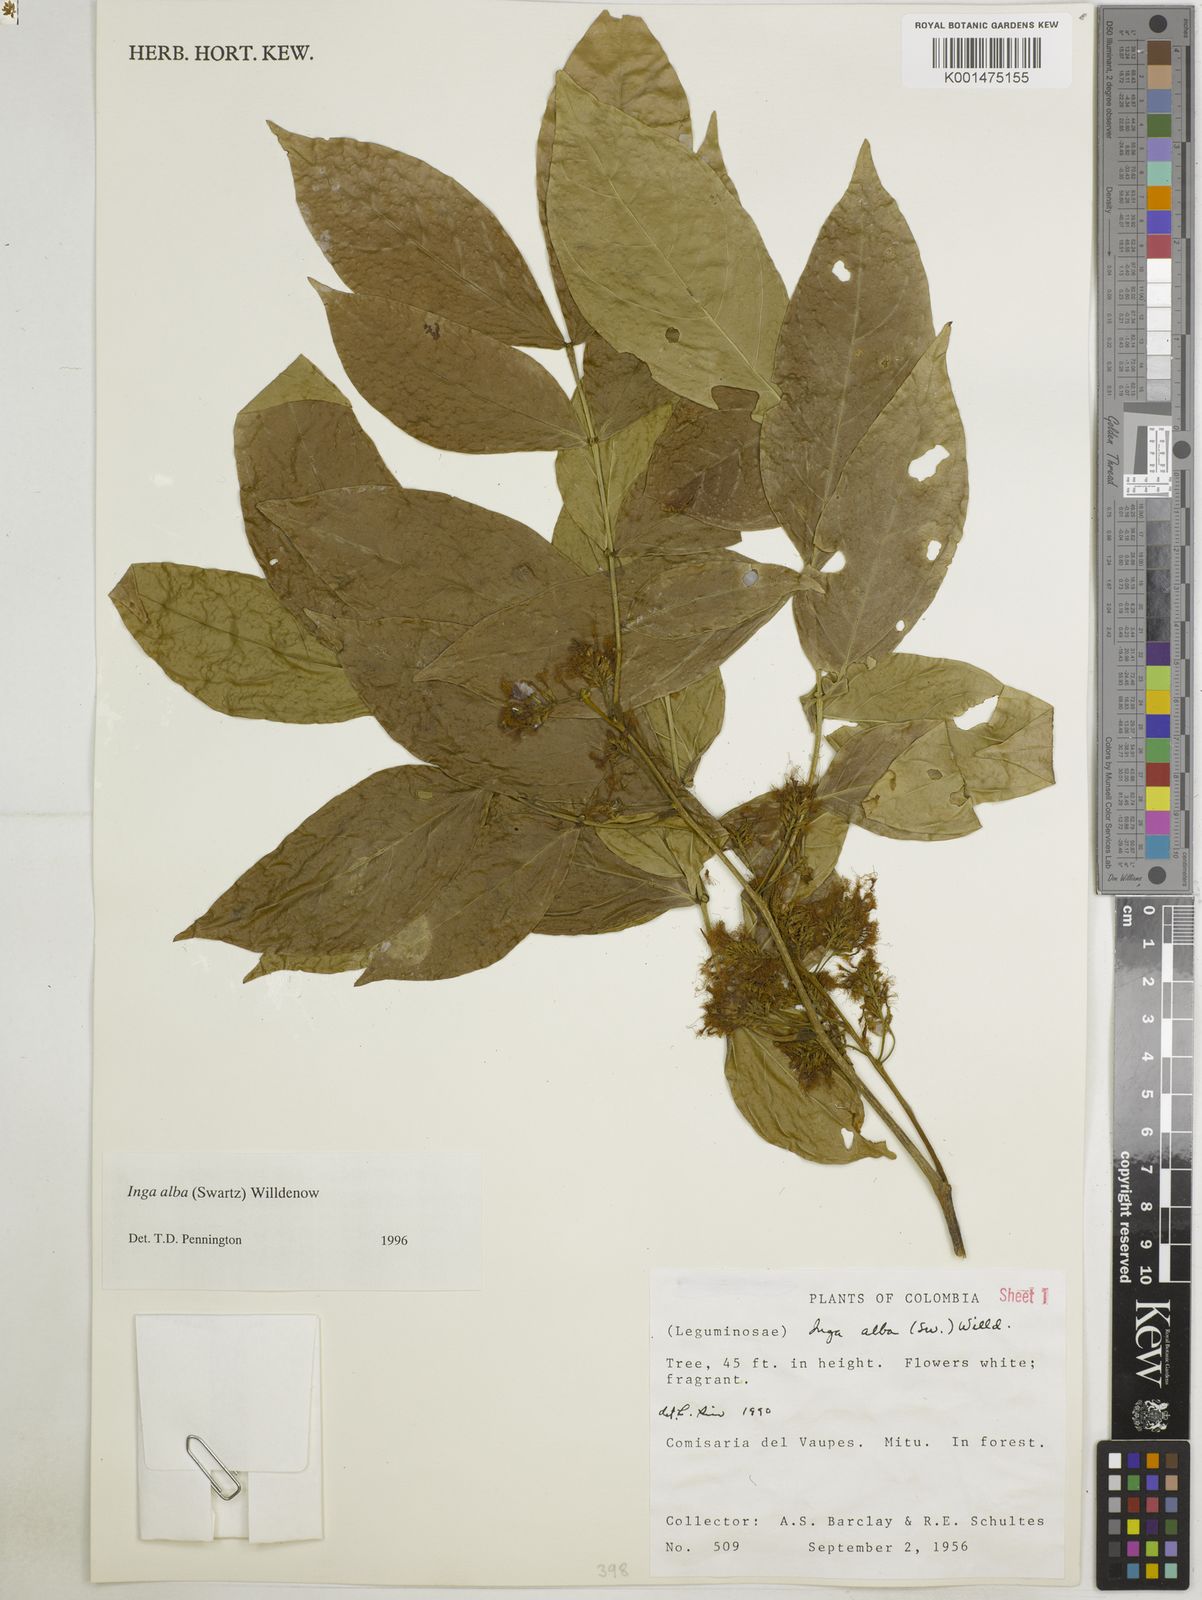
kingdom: Plantae
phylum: Tracheophyta
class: Magnoliopsida
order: Fabales
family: Fabaceae
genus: Inga
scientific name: Inga alba
